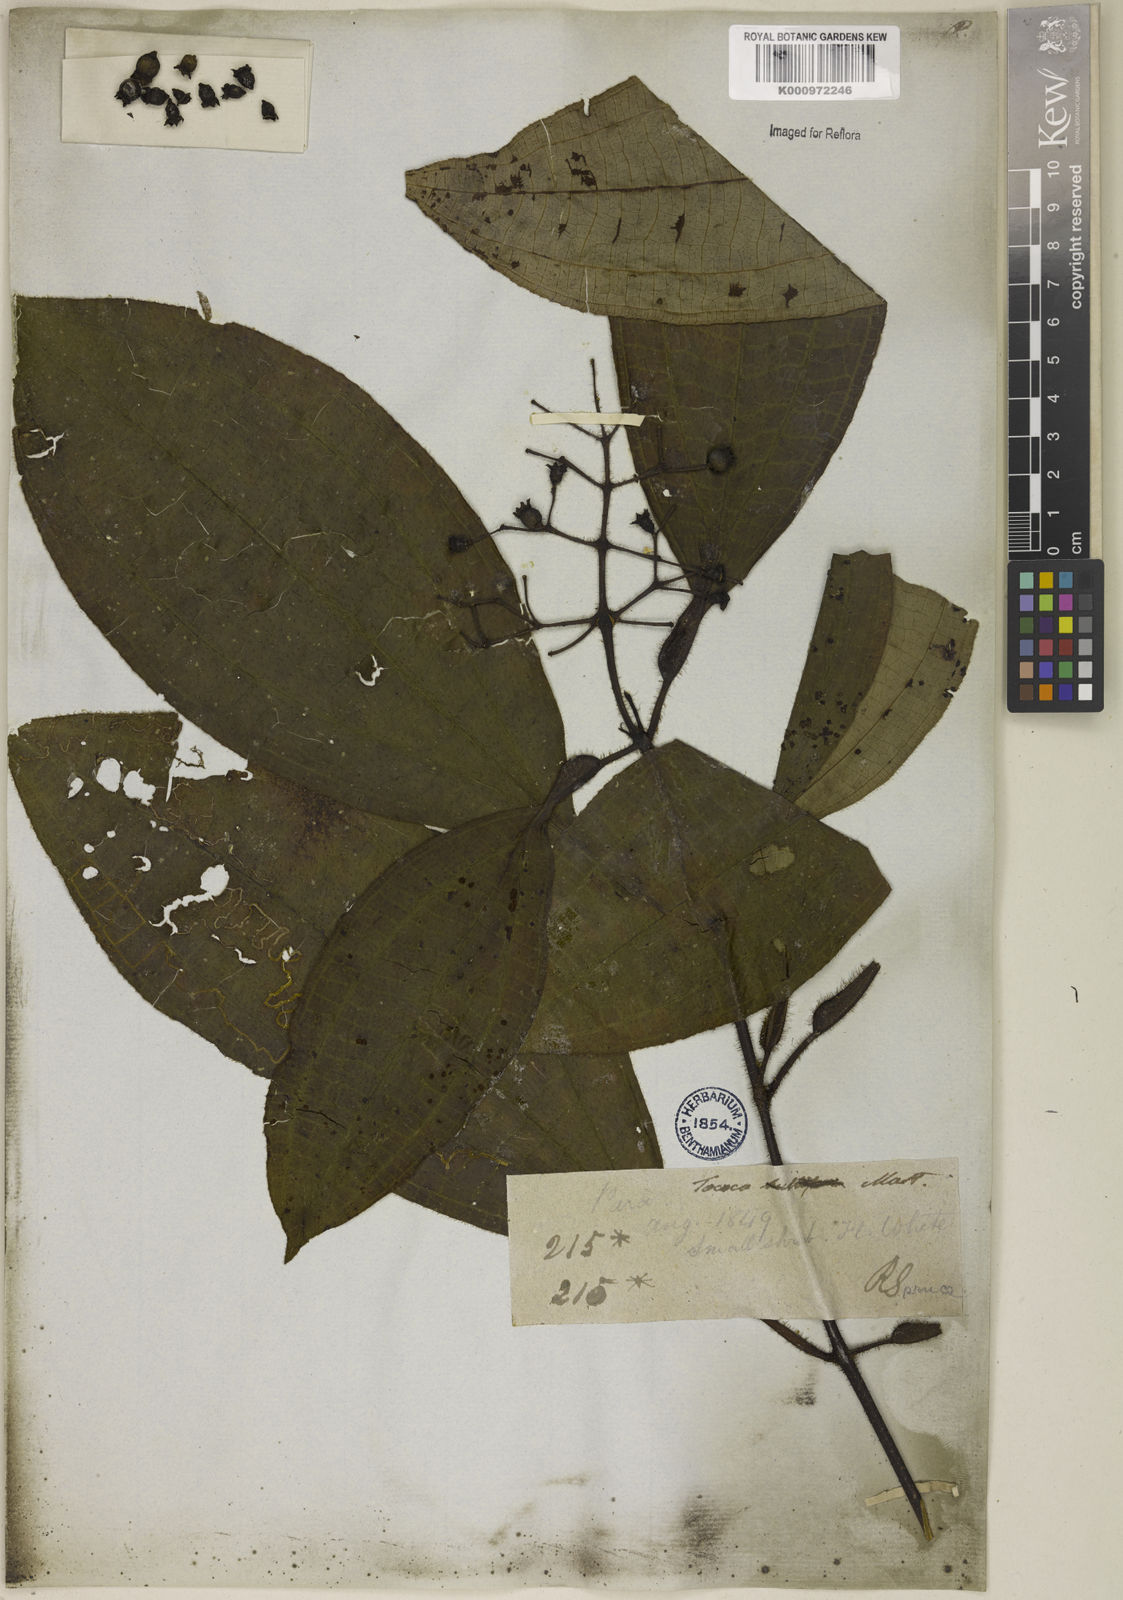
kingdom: Plantae
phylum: Tracheophyta
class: Magnoliopsida
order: Myrtales
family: Melastomataceae
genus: Miconia
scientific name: Miconia
